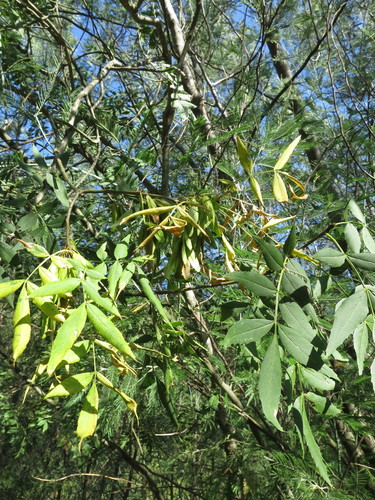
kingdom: Plantae
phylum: Tracheophyta
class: Magnoliopsida
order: Lamiales
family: Oleaceae
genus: Fraxinus
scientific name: Fraxinus angustifolia
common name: Narrow-leafed ash
